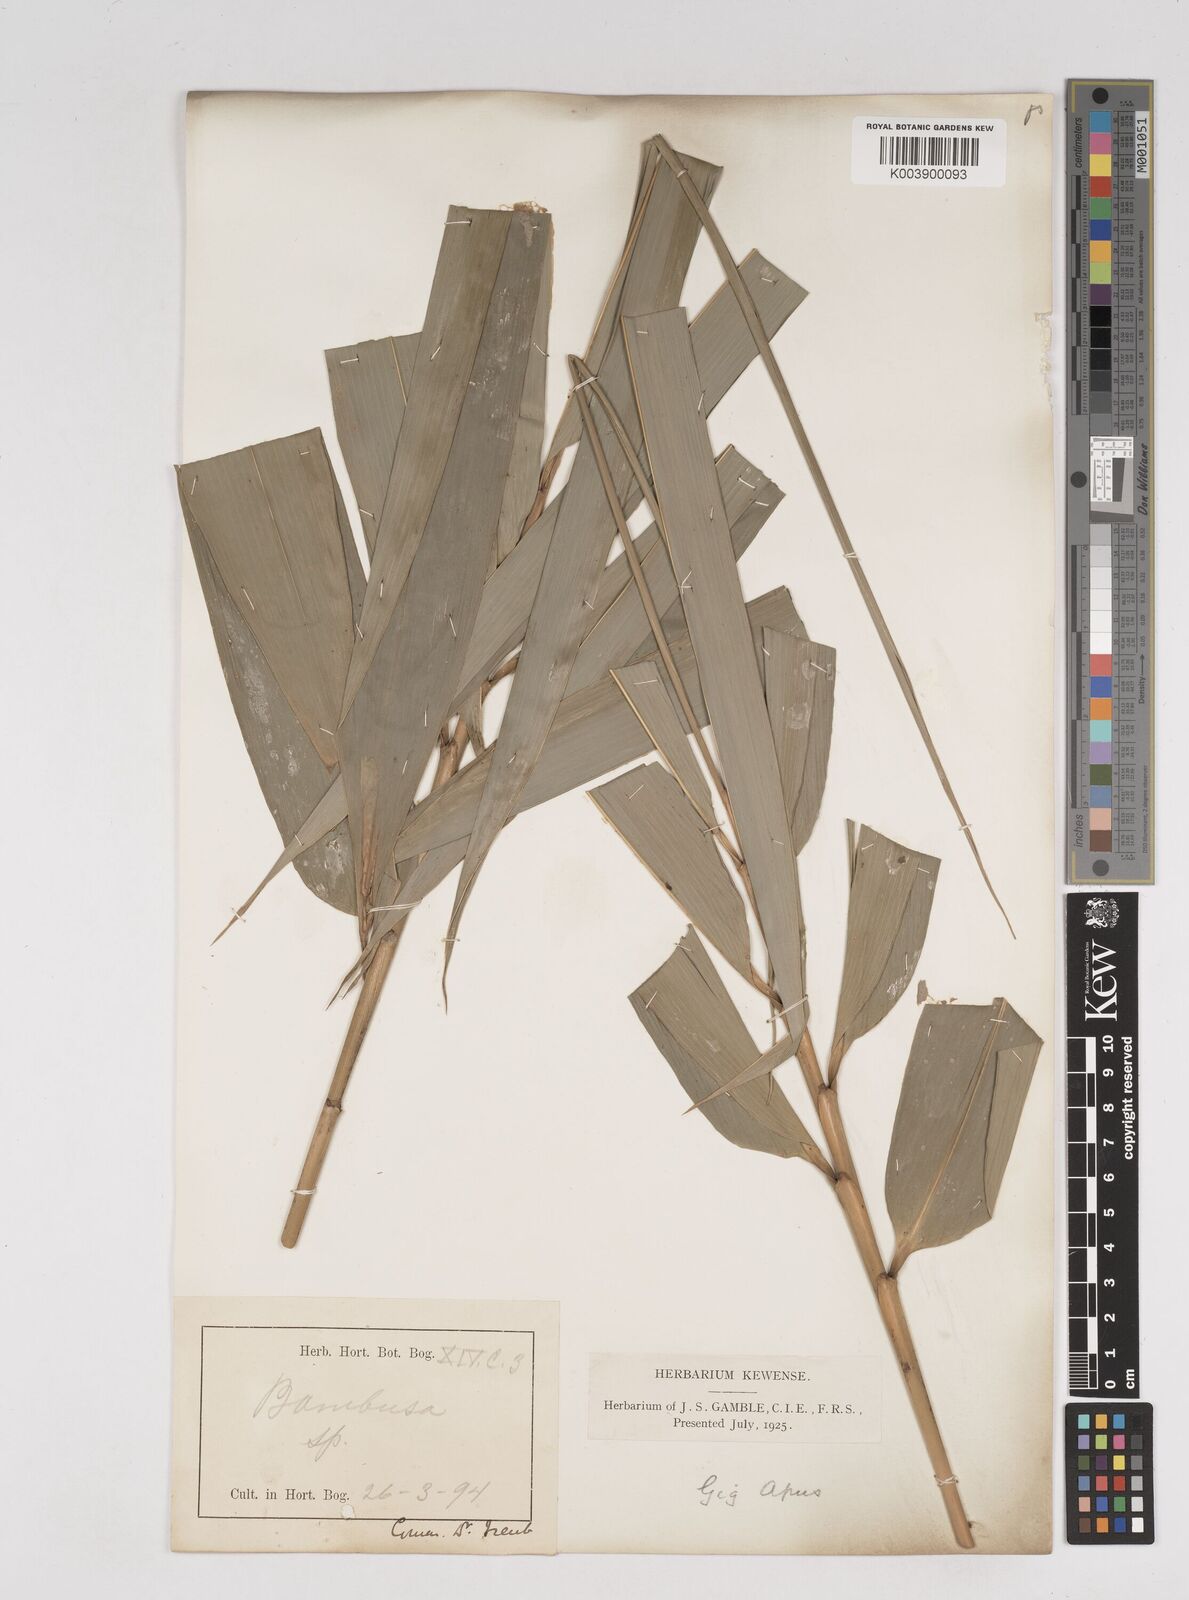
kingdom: Plantae
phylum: Tracheophyta
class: Liliopsida
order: Poales
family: Poaceae
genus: Gigantochloa
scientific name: Gigantochloa apus
